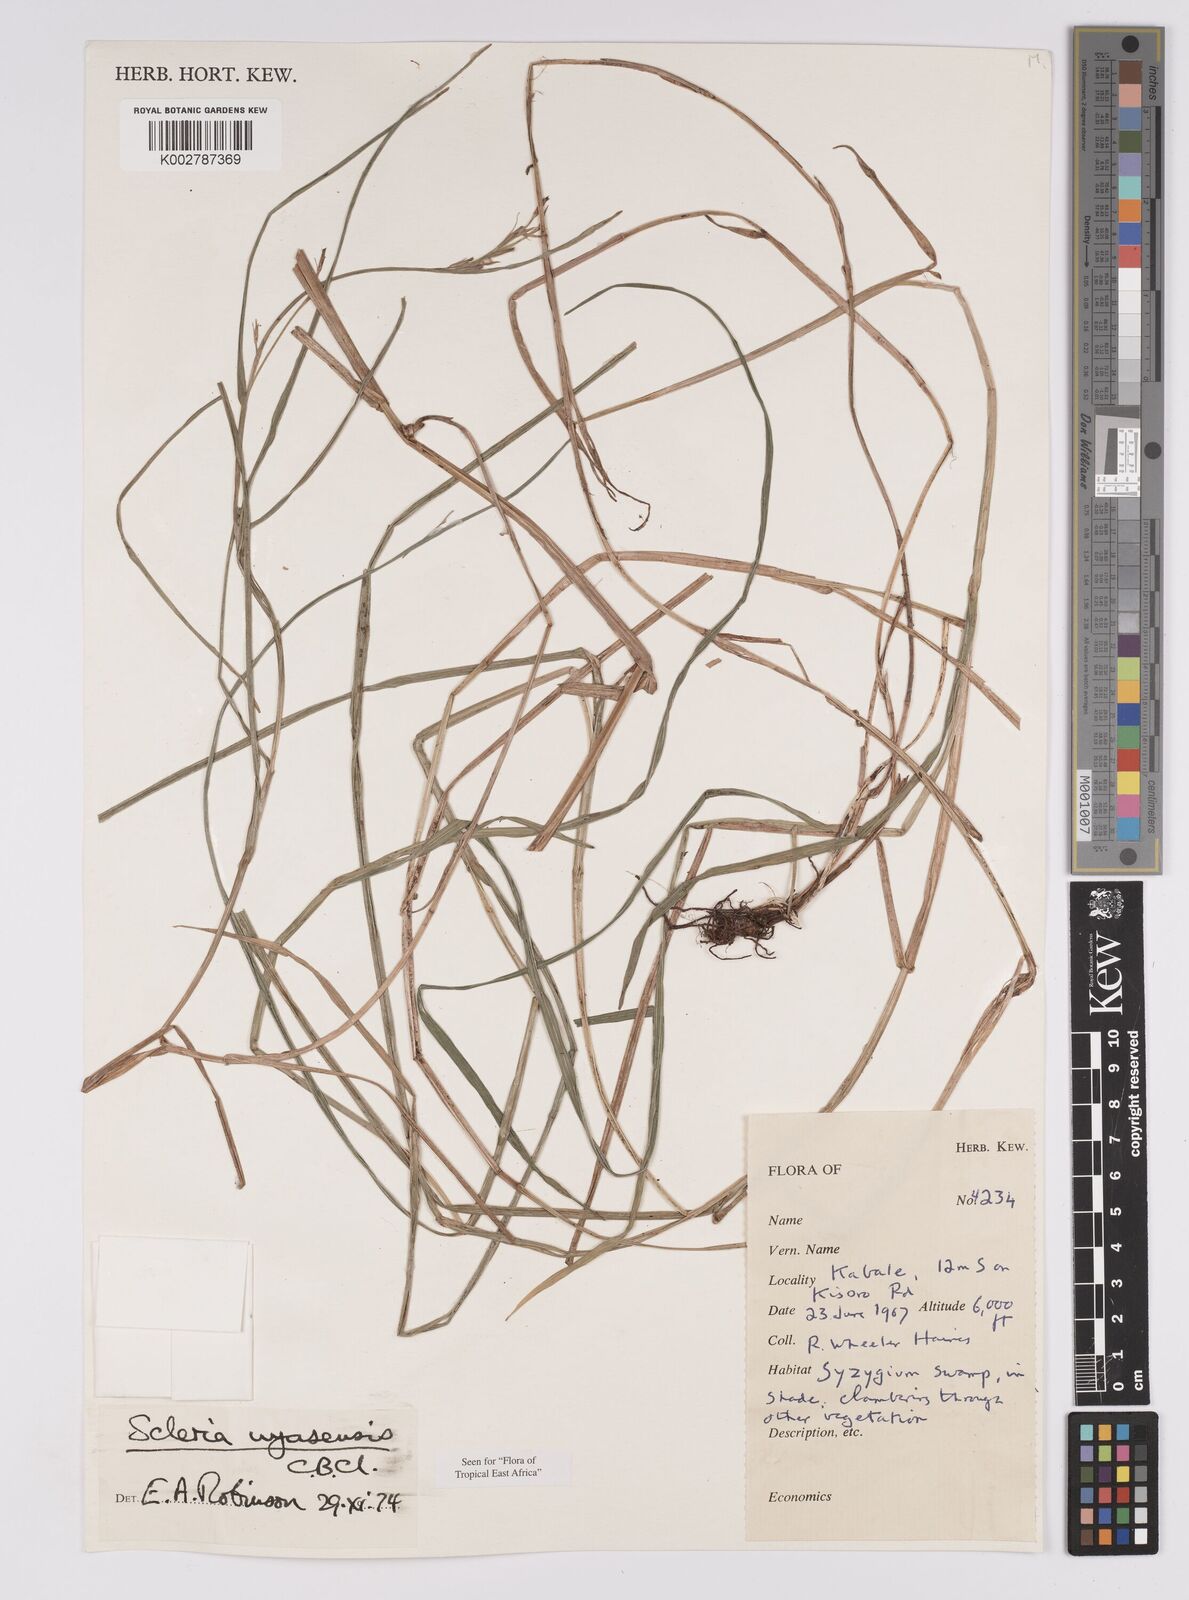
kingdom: Plantae
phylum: Tracheophyta
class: Liliopsida
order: Poales
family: Cyperaceae
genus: Scleria
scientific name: Scleria nyasensis
